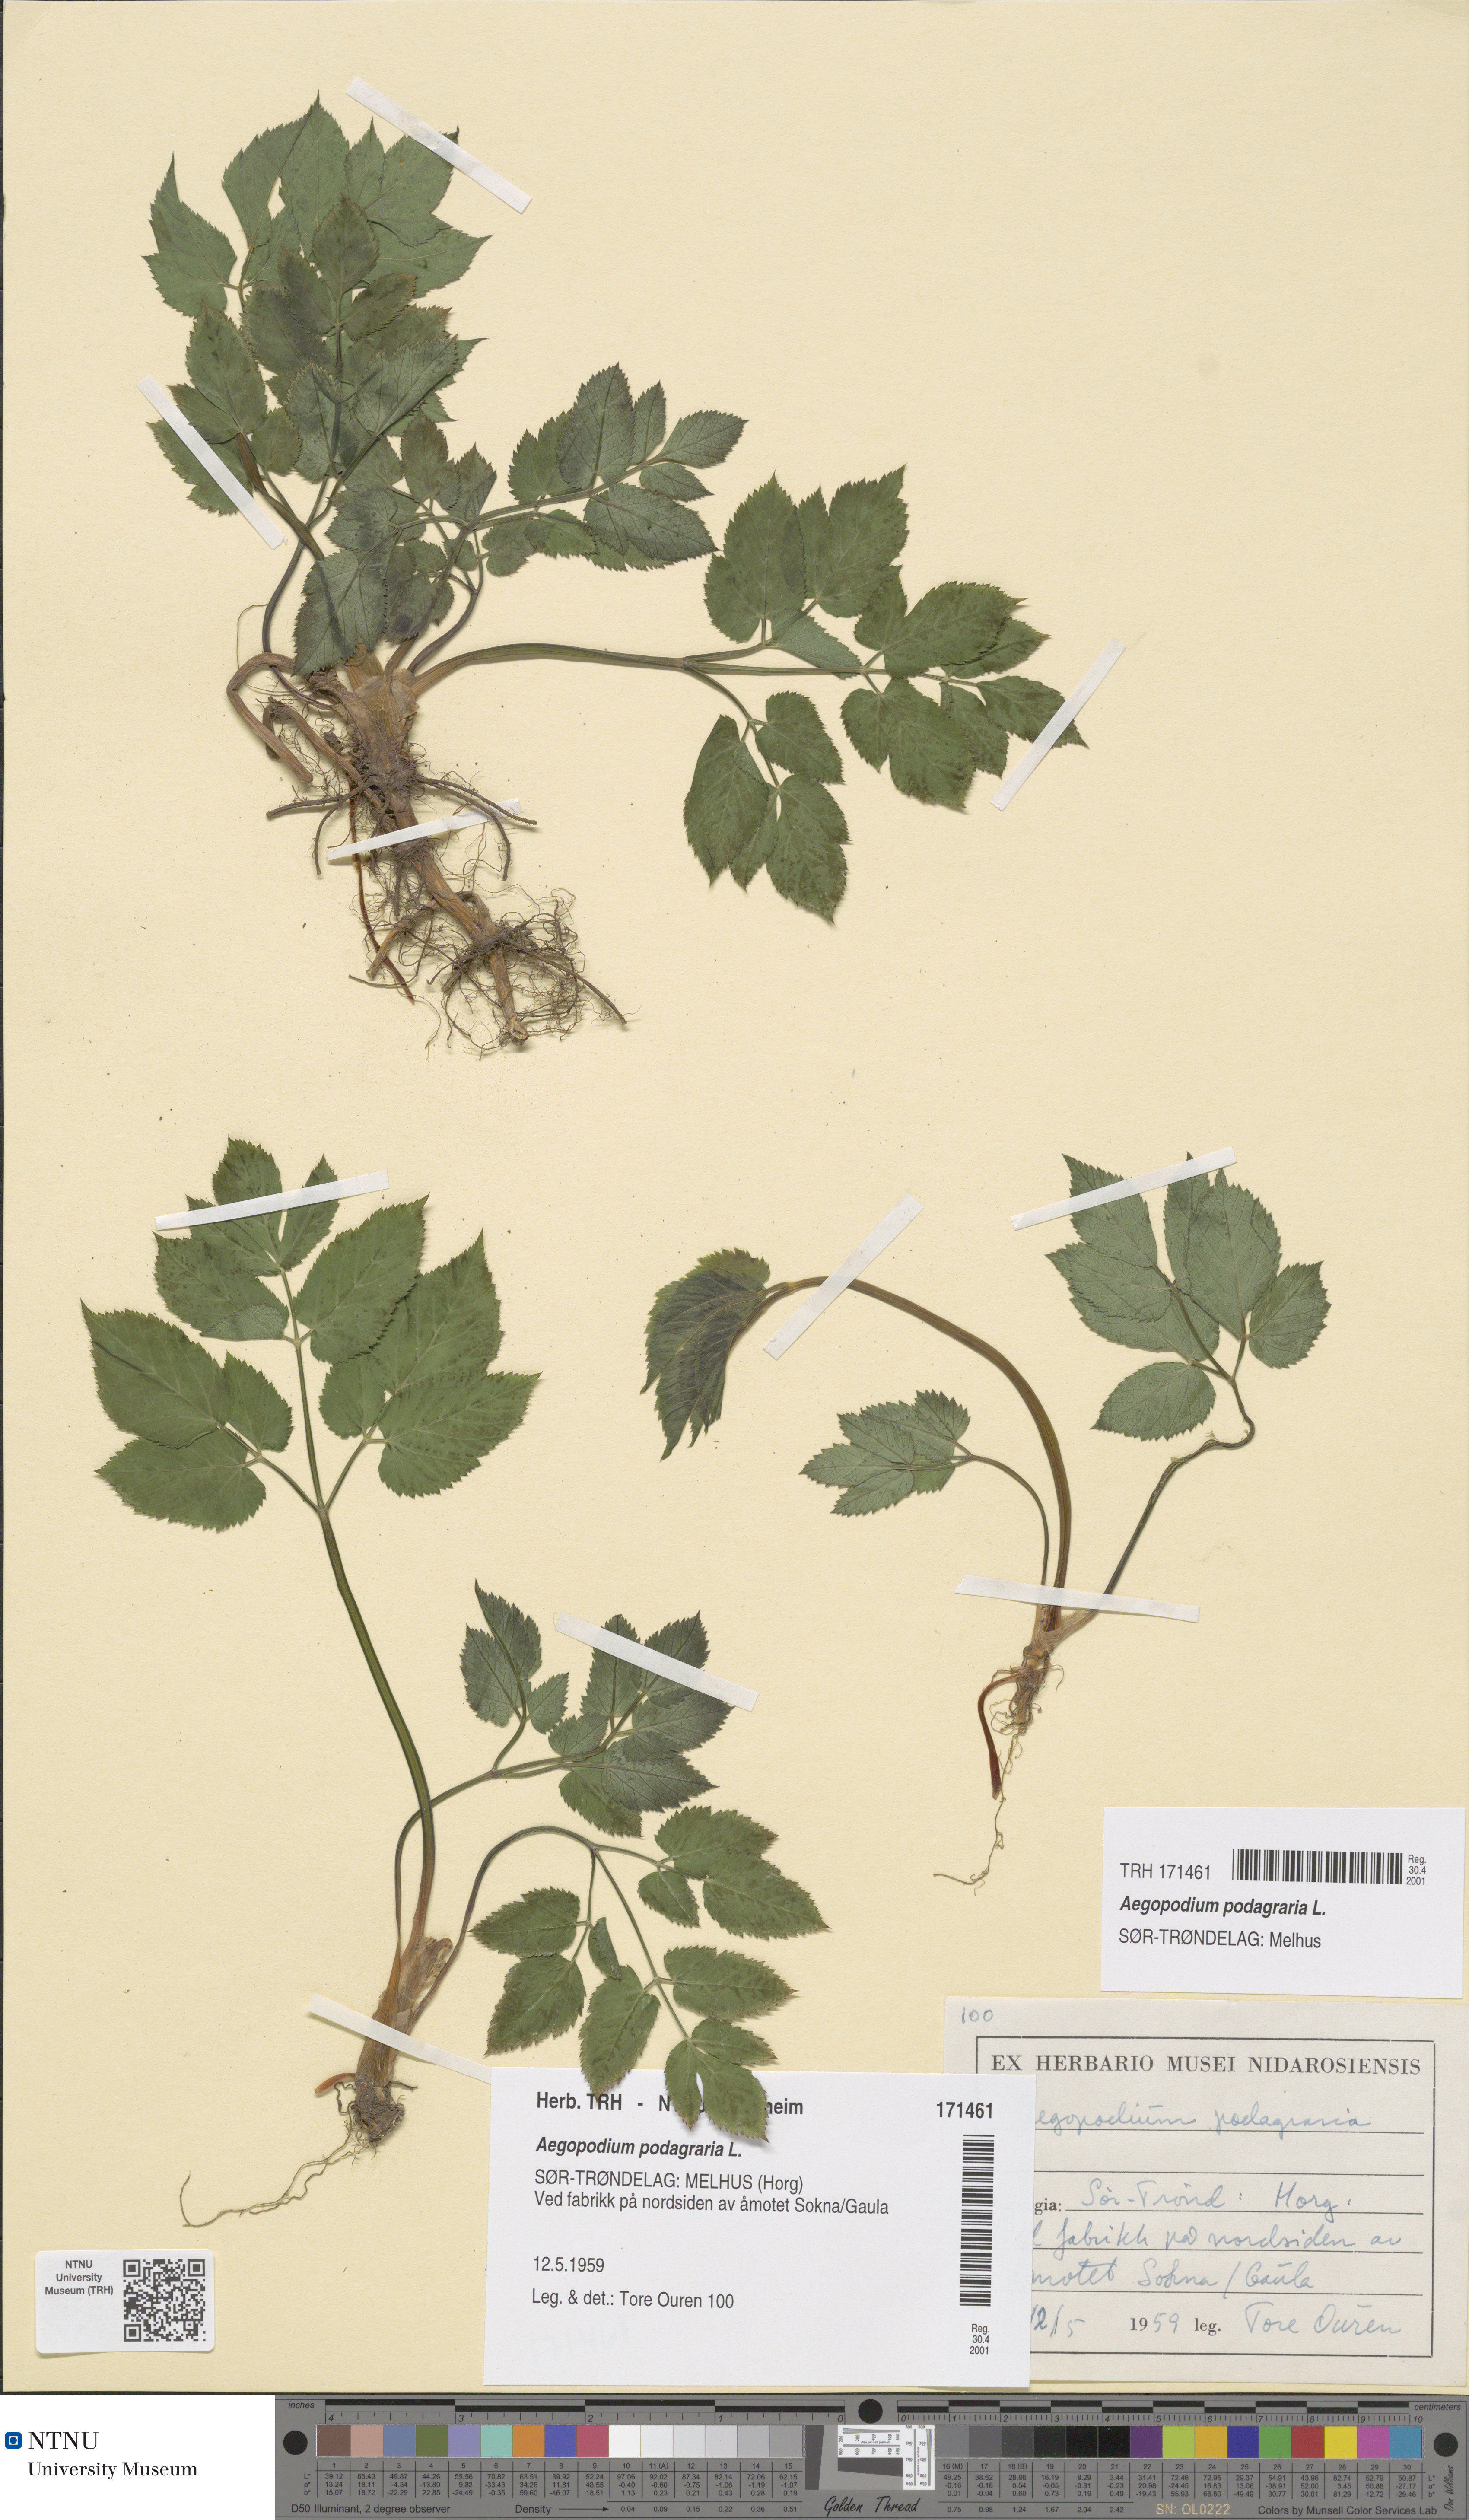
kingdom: Plantae
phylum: Tracheophyta
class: Magnoliopsida
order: Apiales
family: Apiaceae
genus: Aegopodium
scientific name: Aegopodium podagraria
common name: Ground-elder
